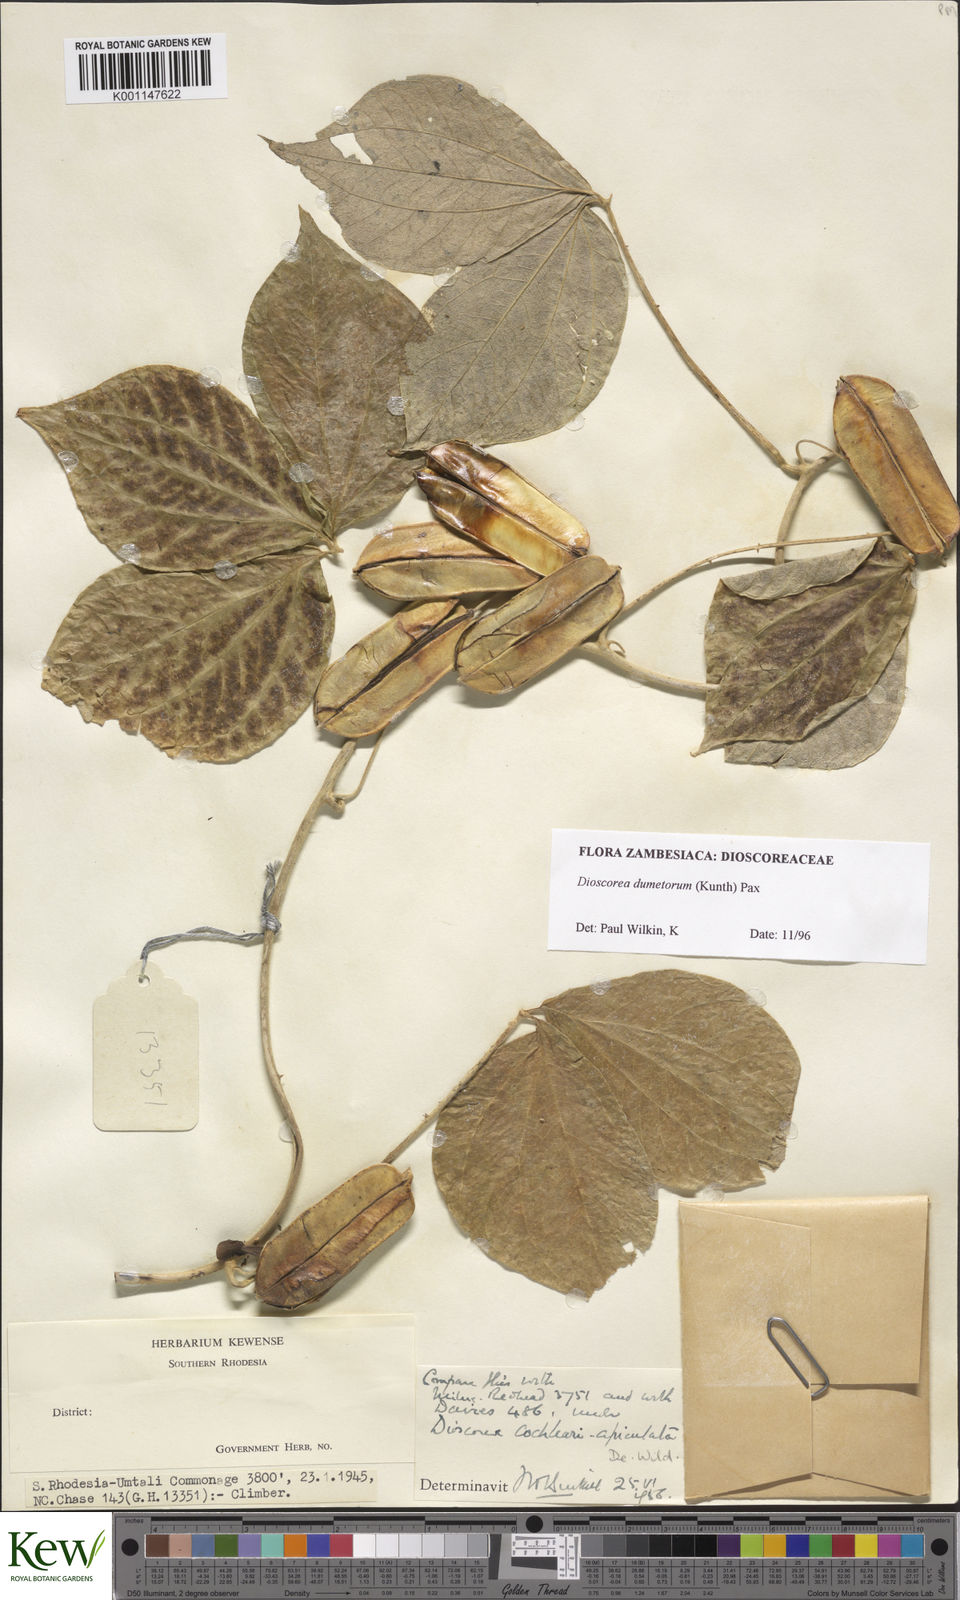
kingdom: Plantae
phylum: Tracheophyta
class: Liliopsida
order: Dioscoreales
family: Dioscoreaceae
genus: Dioscorea
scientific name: Dioscorea dumetorum
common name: African bitter yam
